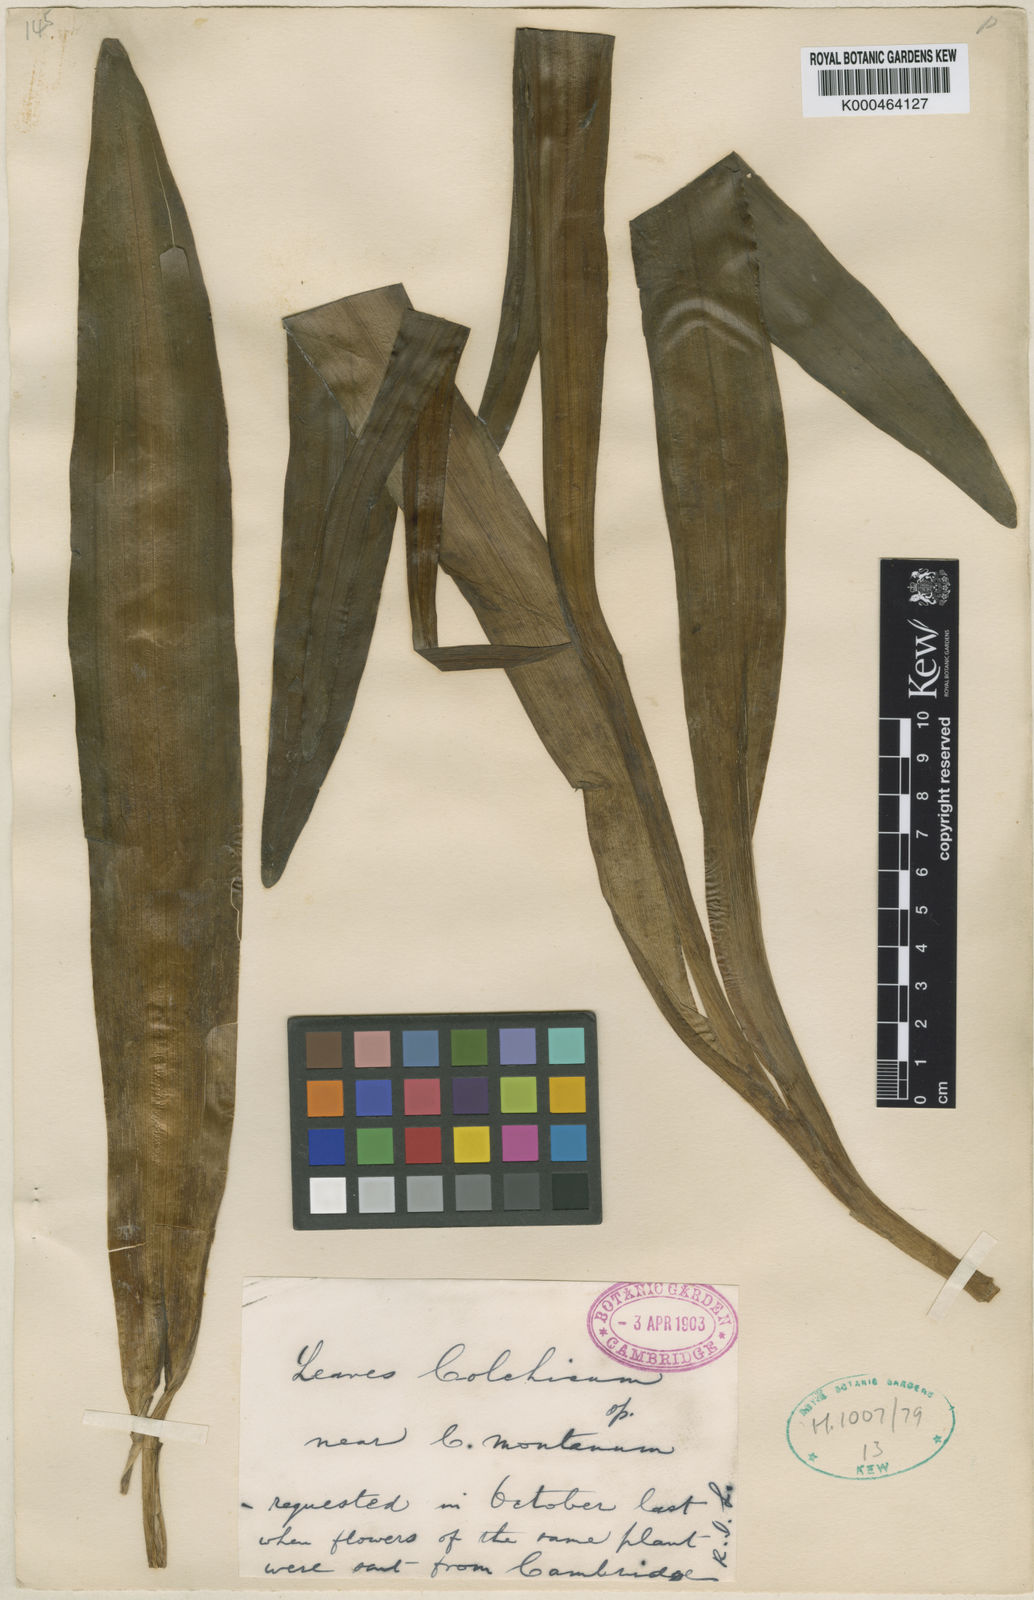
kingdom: Plantae
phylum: Tracheophyta
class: Liliopsida
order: Liliales
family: Colchicaceae
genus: Colchicum
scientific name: Colchicum haynaldii
